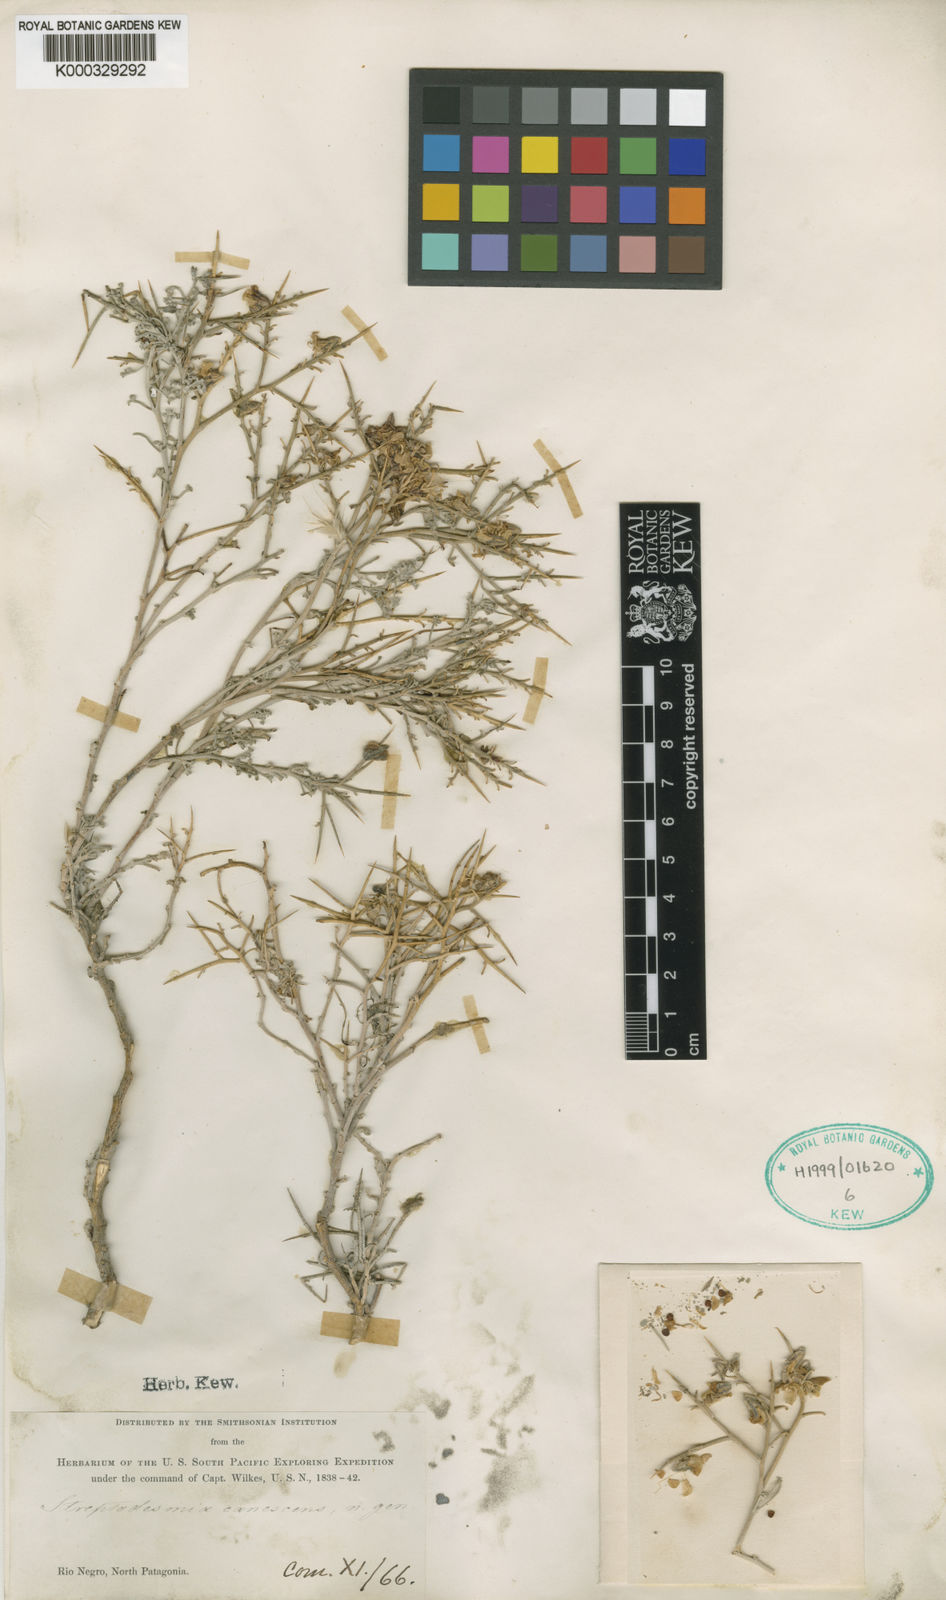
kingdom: Plantae
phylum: Tracheophyta
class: Magnoliopsida
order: Fabales
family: Fabaceae
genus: Adesmia
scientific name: Adesmia candida
